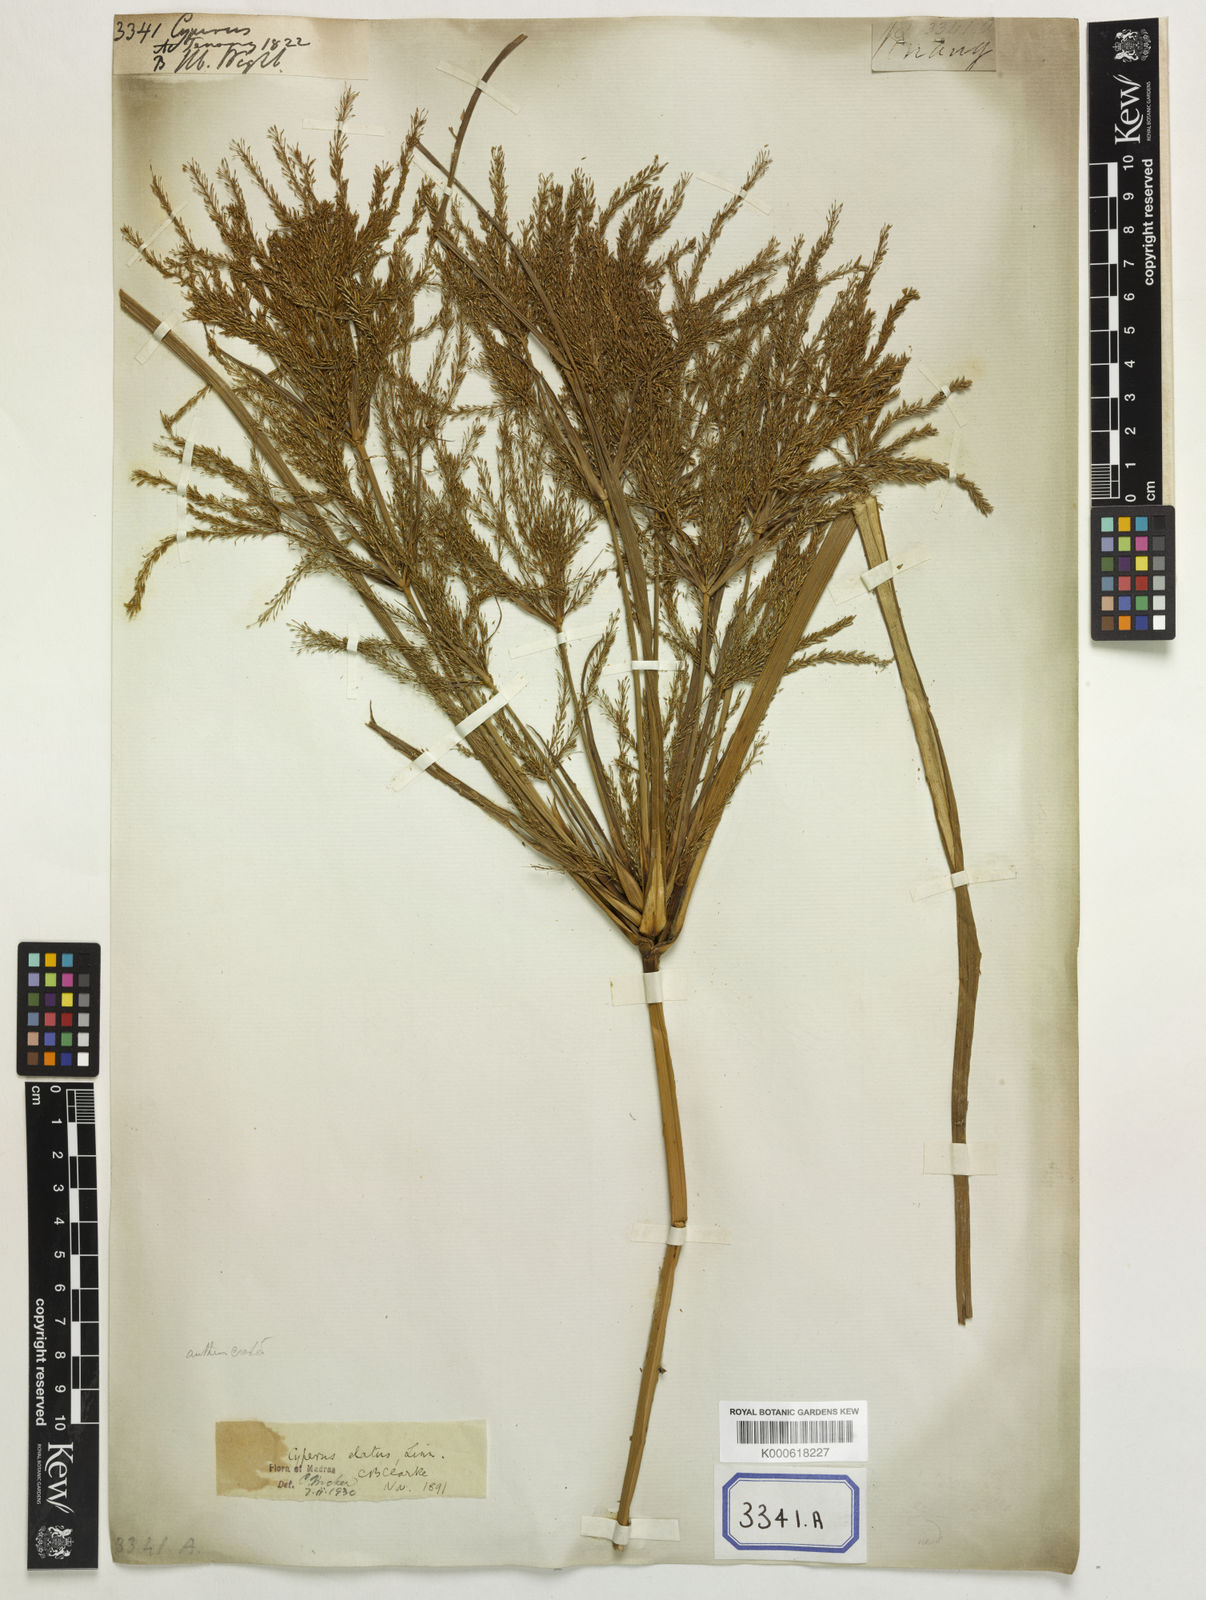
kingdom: Plantae
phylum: Tracheophyta
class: Liliopsida
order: Poales
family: Cyperaceae
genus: Cyperus
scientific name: Cyperus elatus
